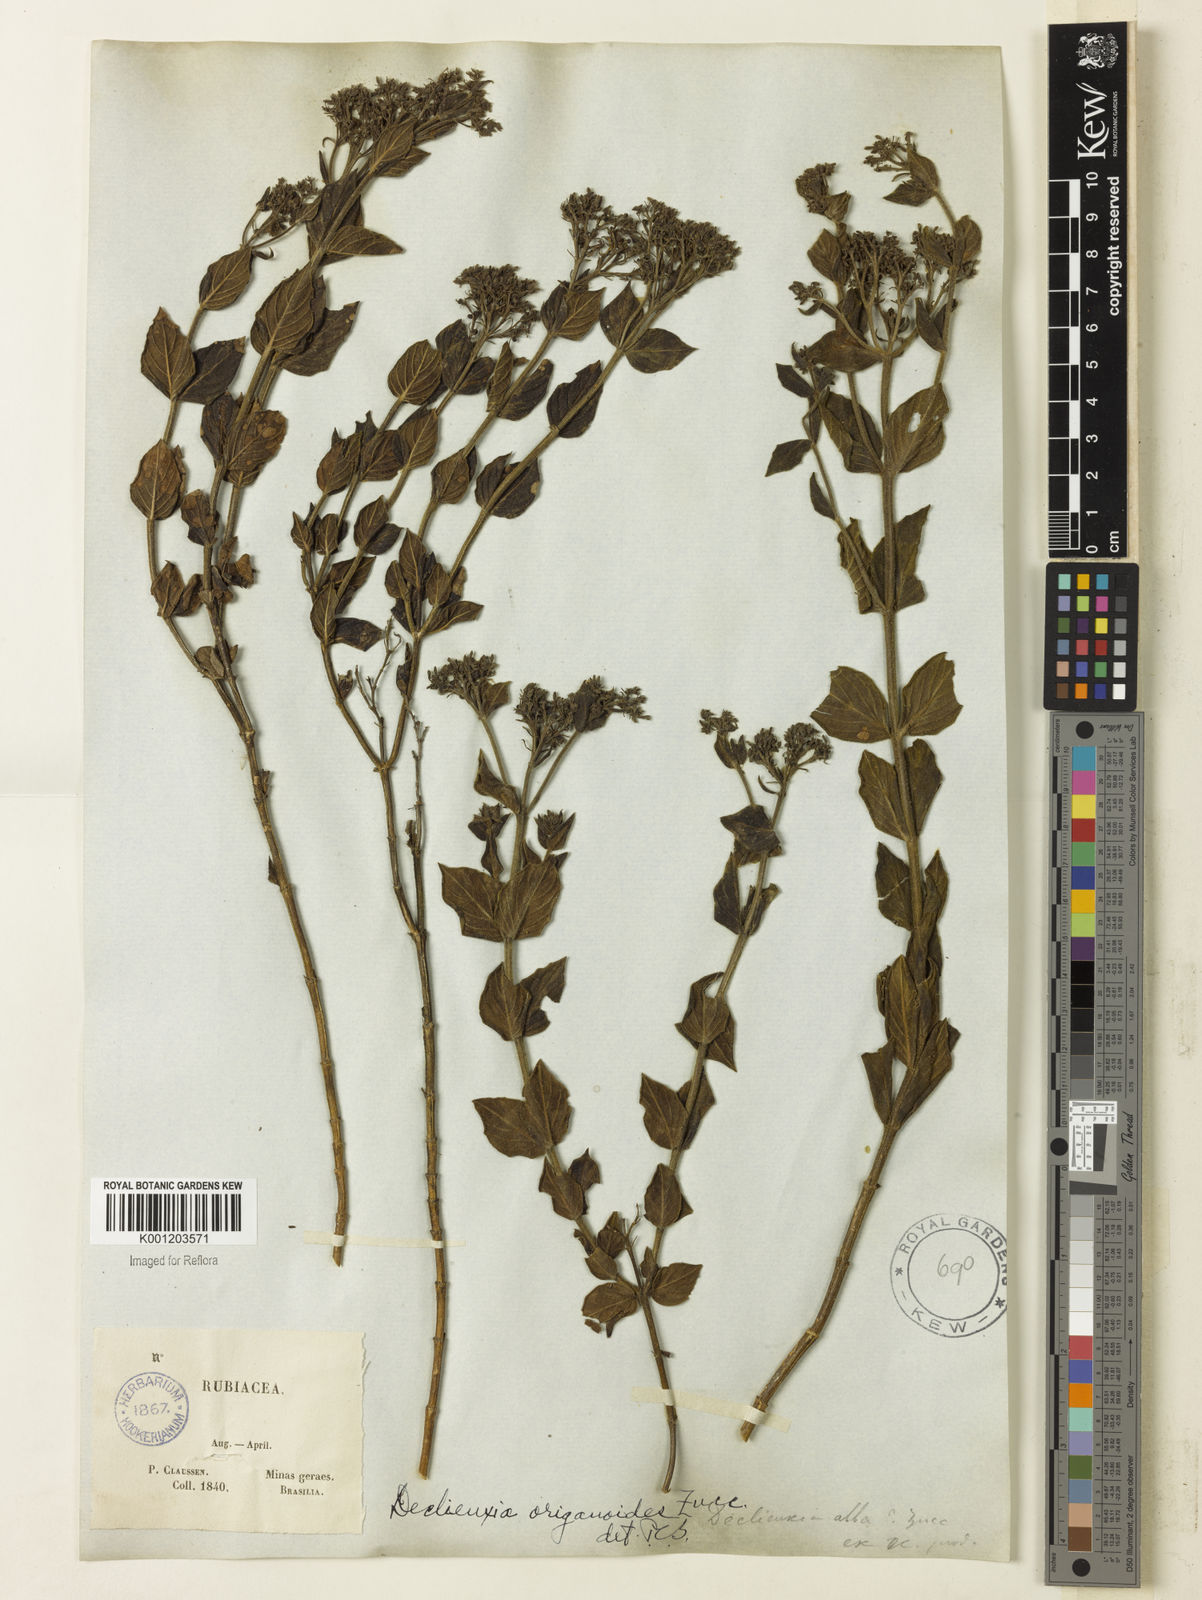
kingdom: Plantae
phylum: Tracheophyta
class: Magnoliopsida
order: Gentianales
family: Rubiaceae
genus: Declieuxia
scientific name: Declieuxia fruticosa
